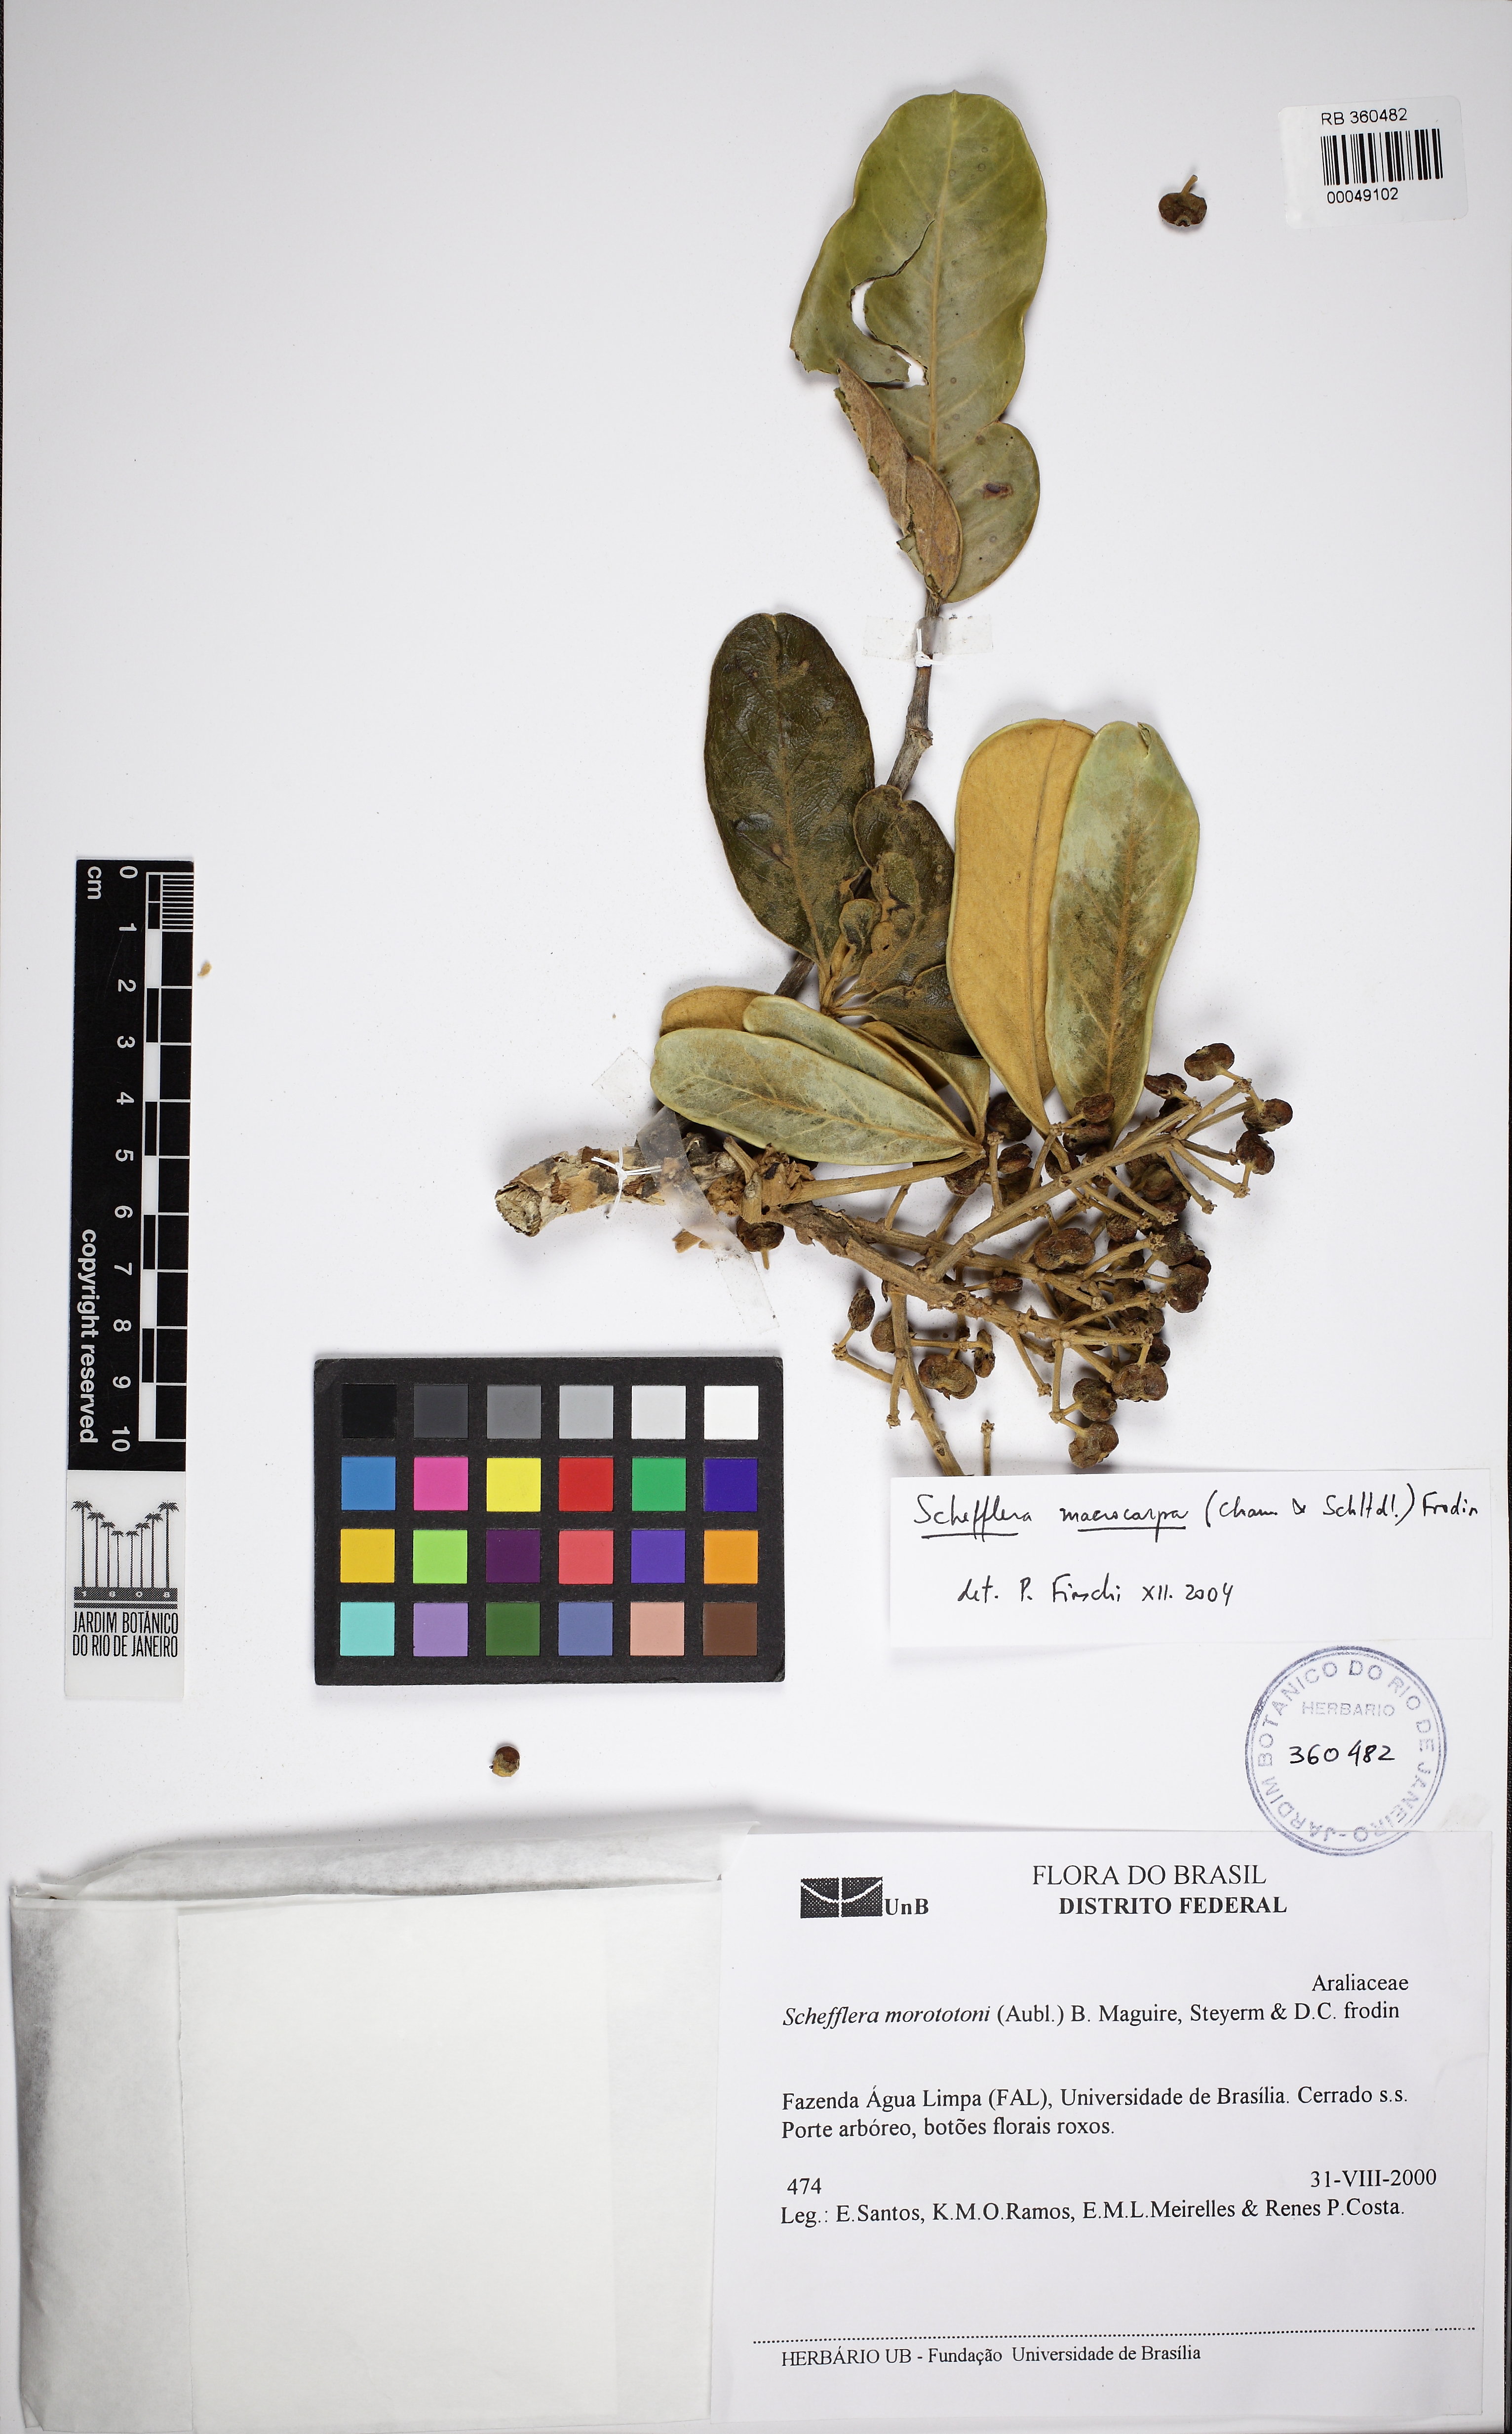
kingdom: Plantae
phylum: Tracheophyta
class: Magnoliopsida
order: Apiales
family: Araliaceae
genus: Didymopanax
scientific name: Didymopanax macrocarpus
